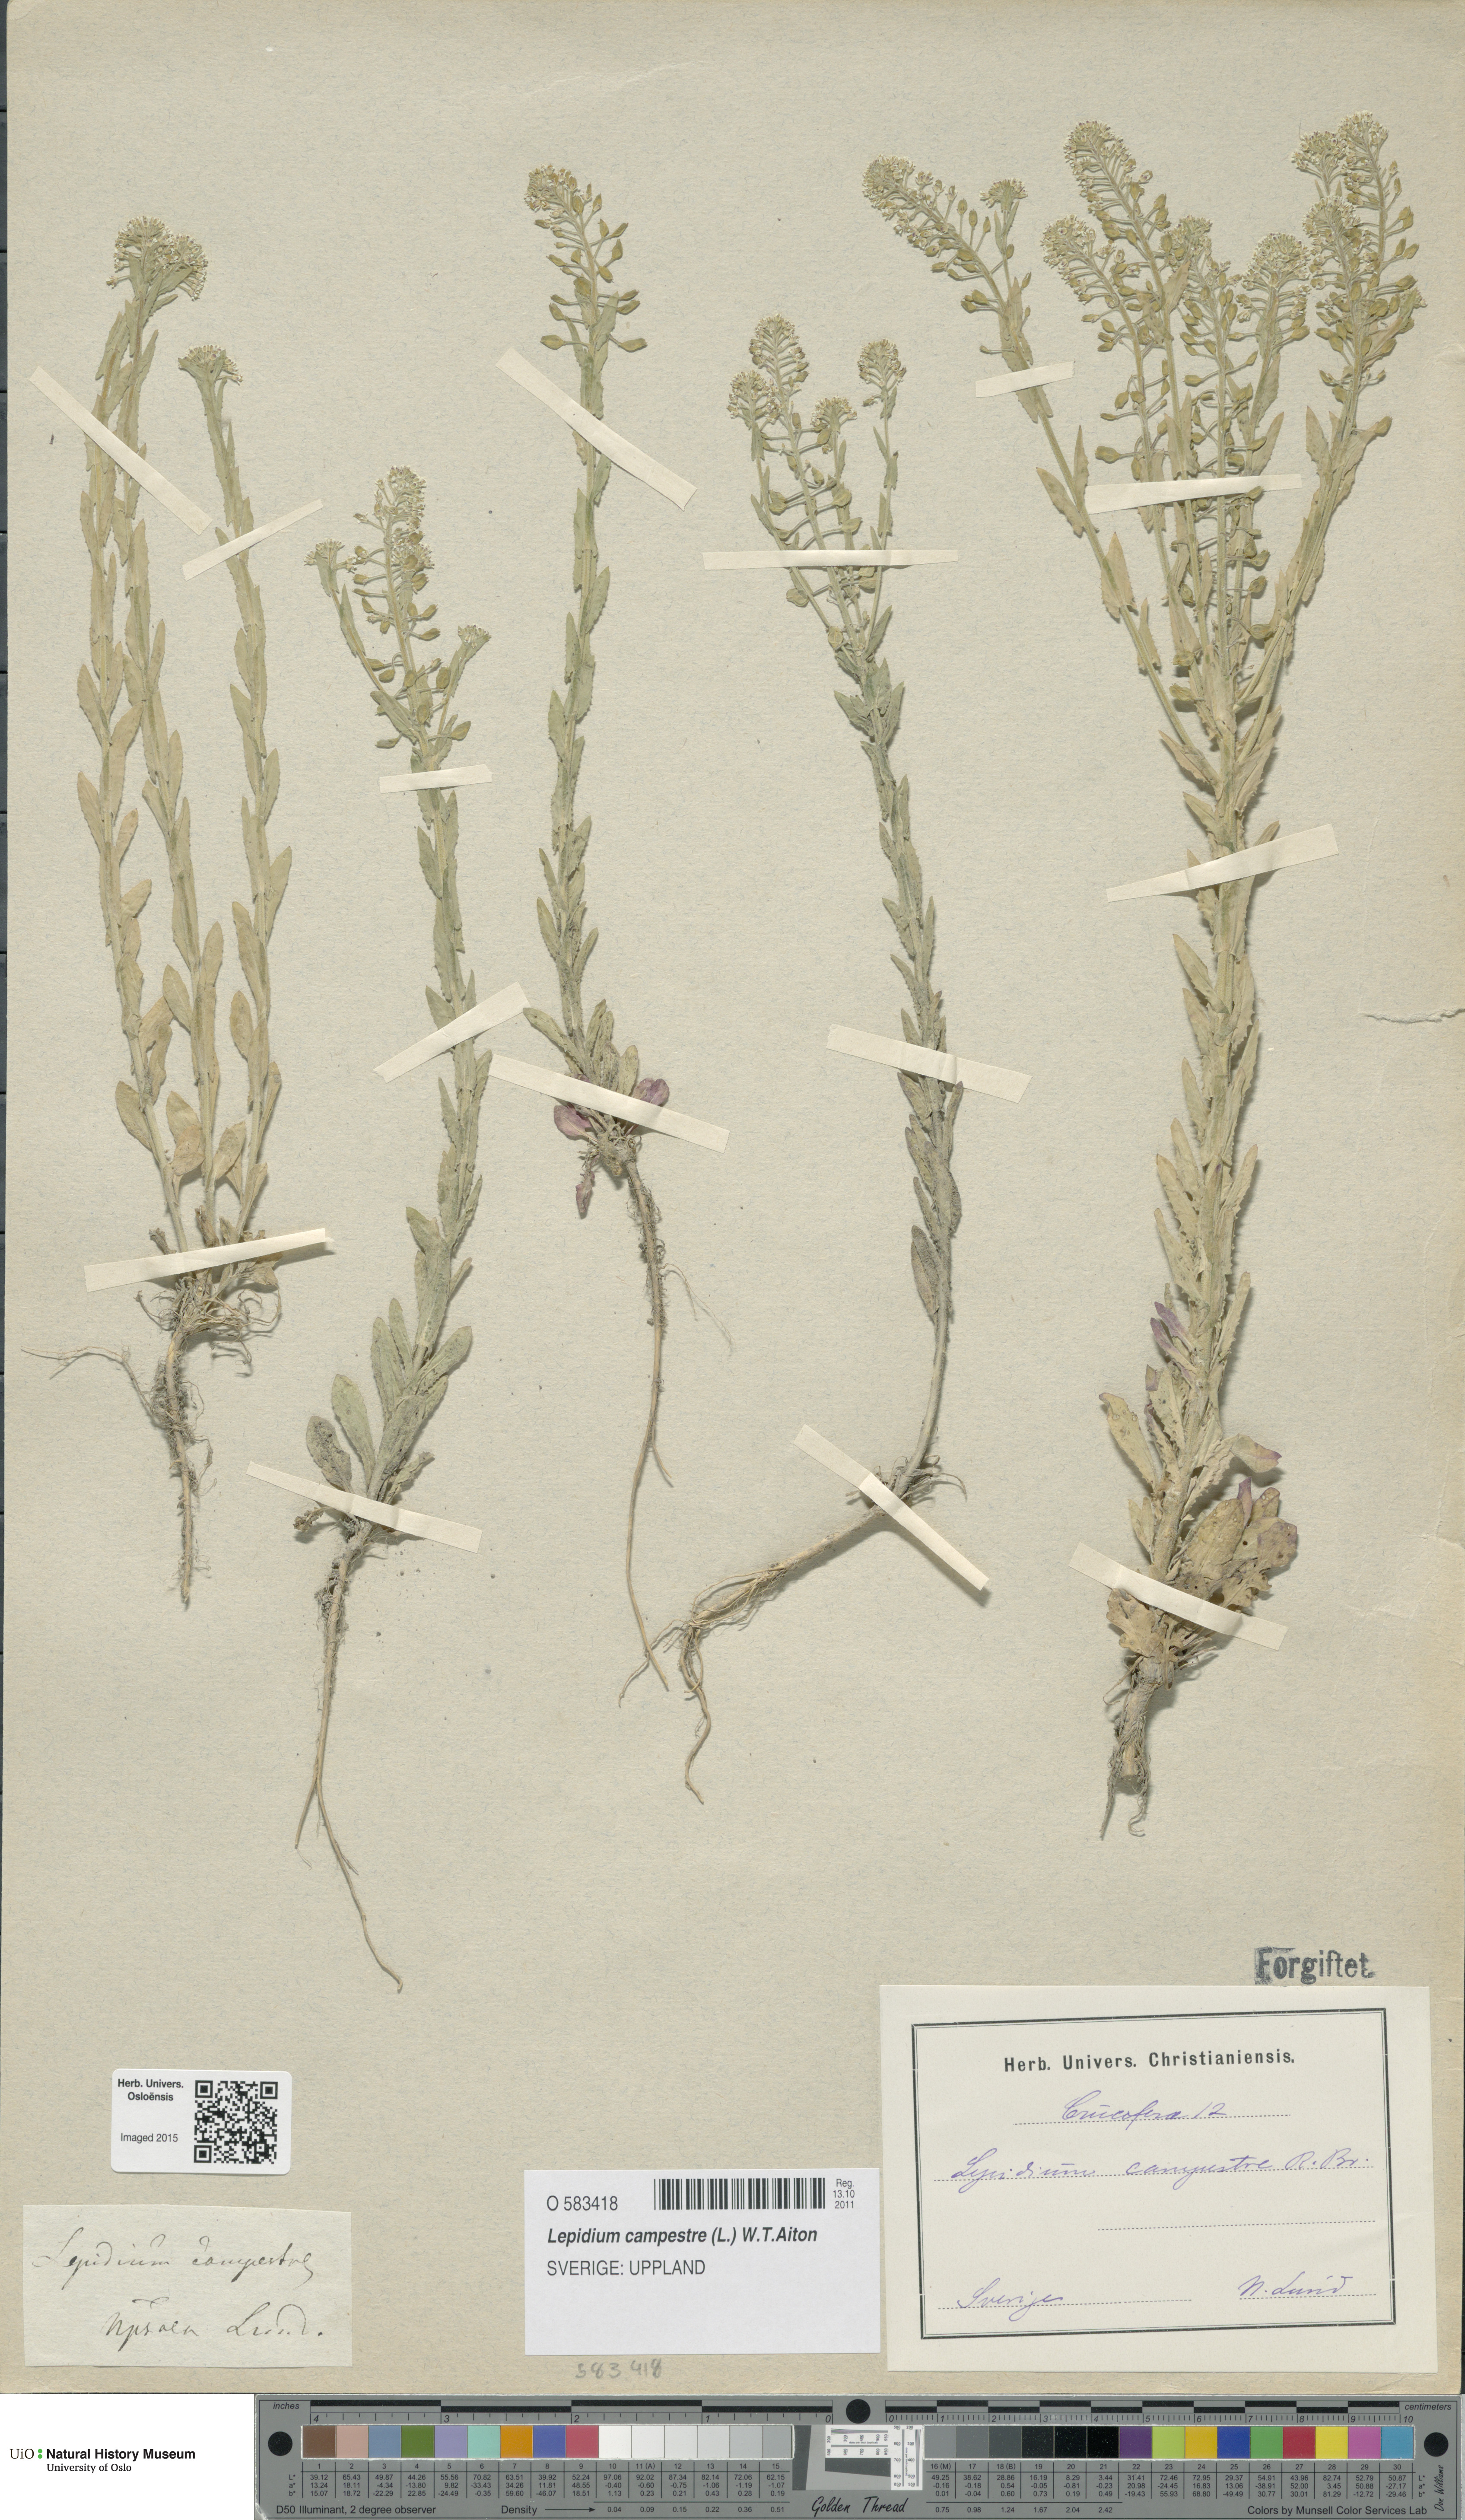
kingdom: Plantae
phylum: Tracheophyta
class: Magnoliopsida
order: Brassicales
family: Brassicaceae
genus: Lepidium
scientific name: Lepidium campestre
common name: Field pepperwort
